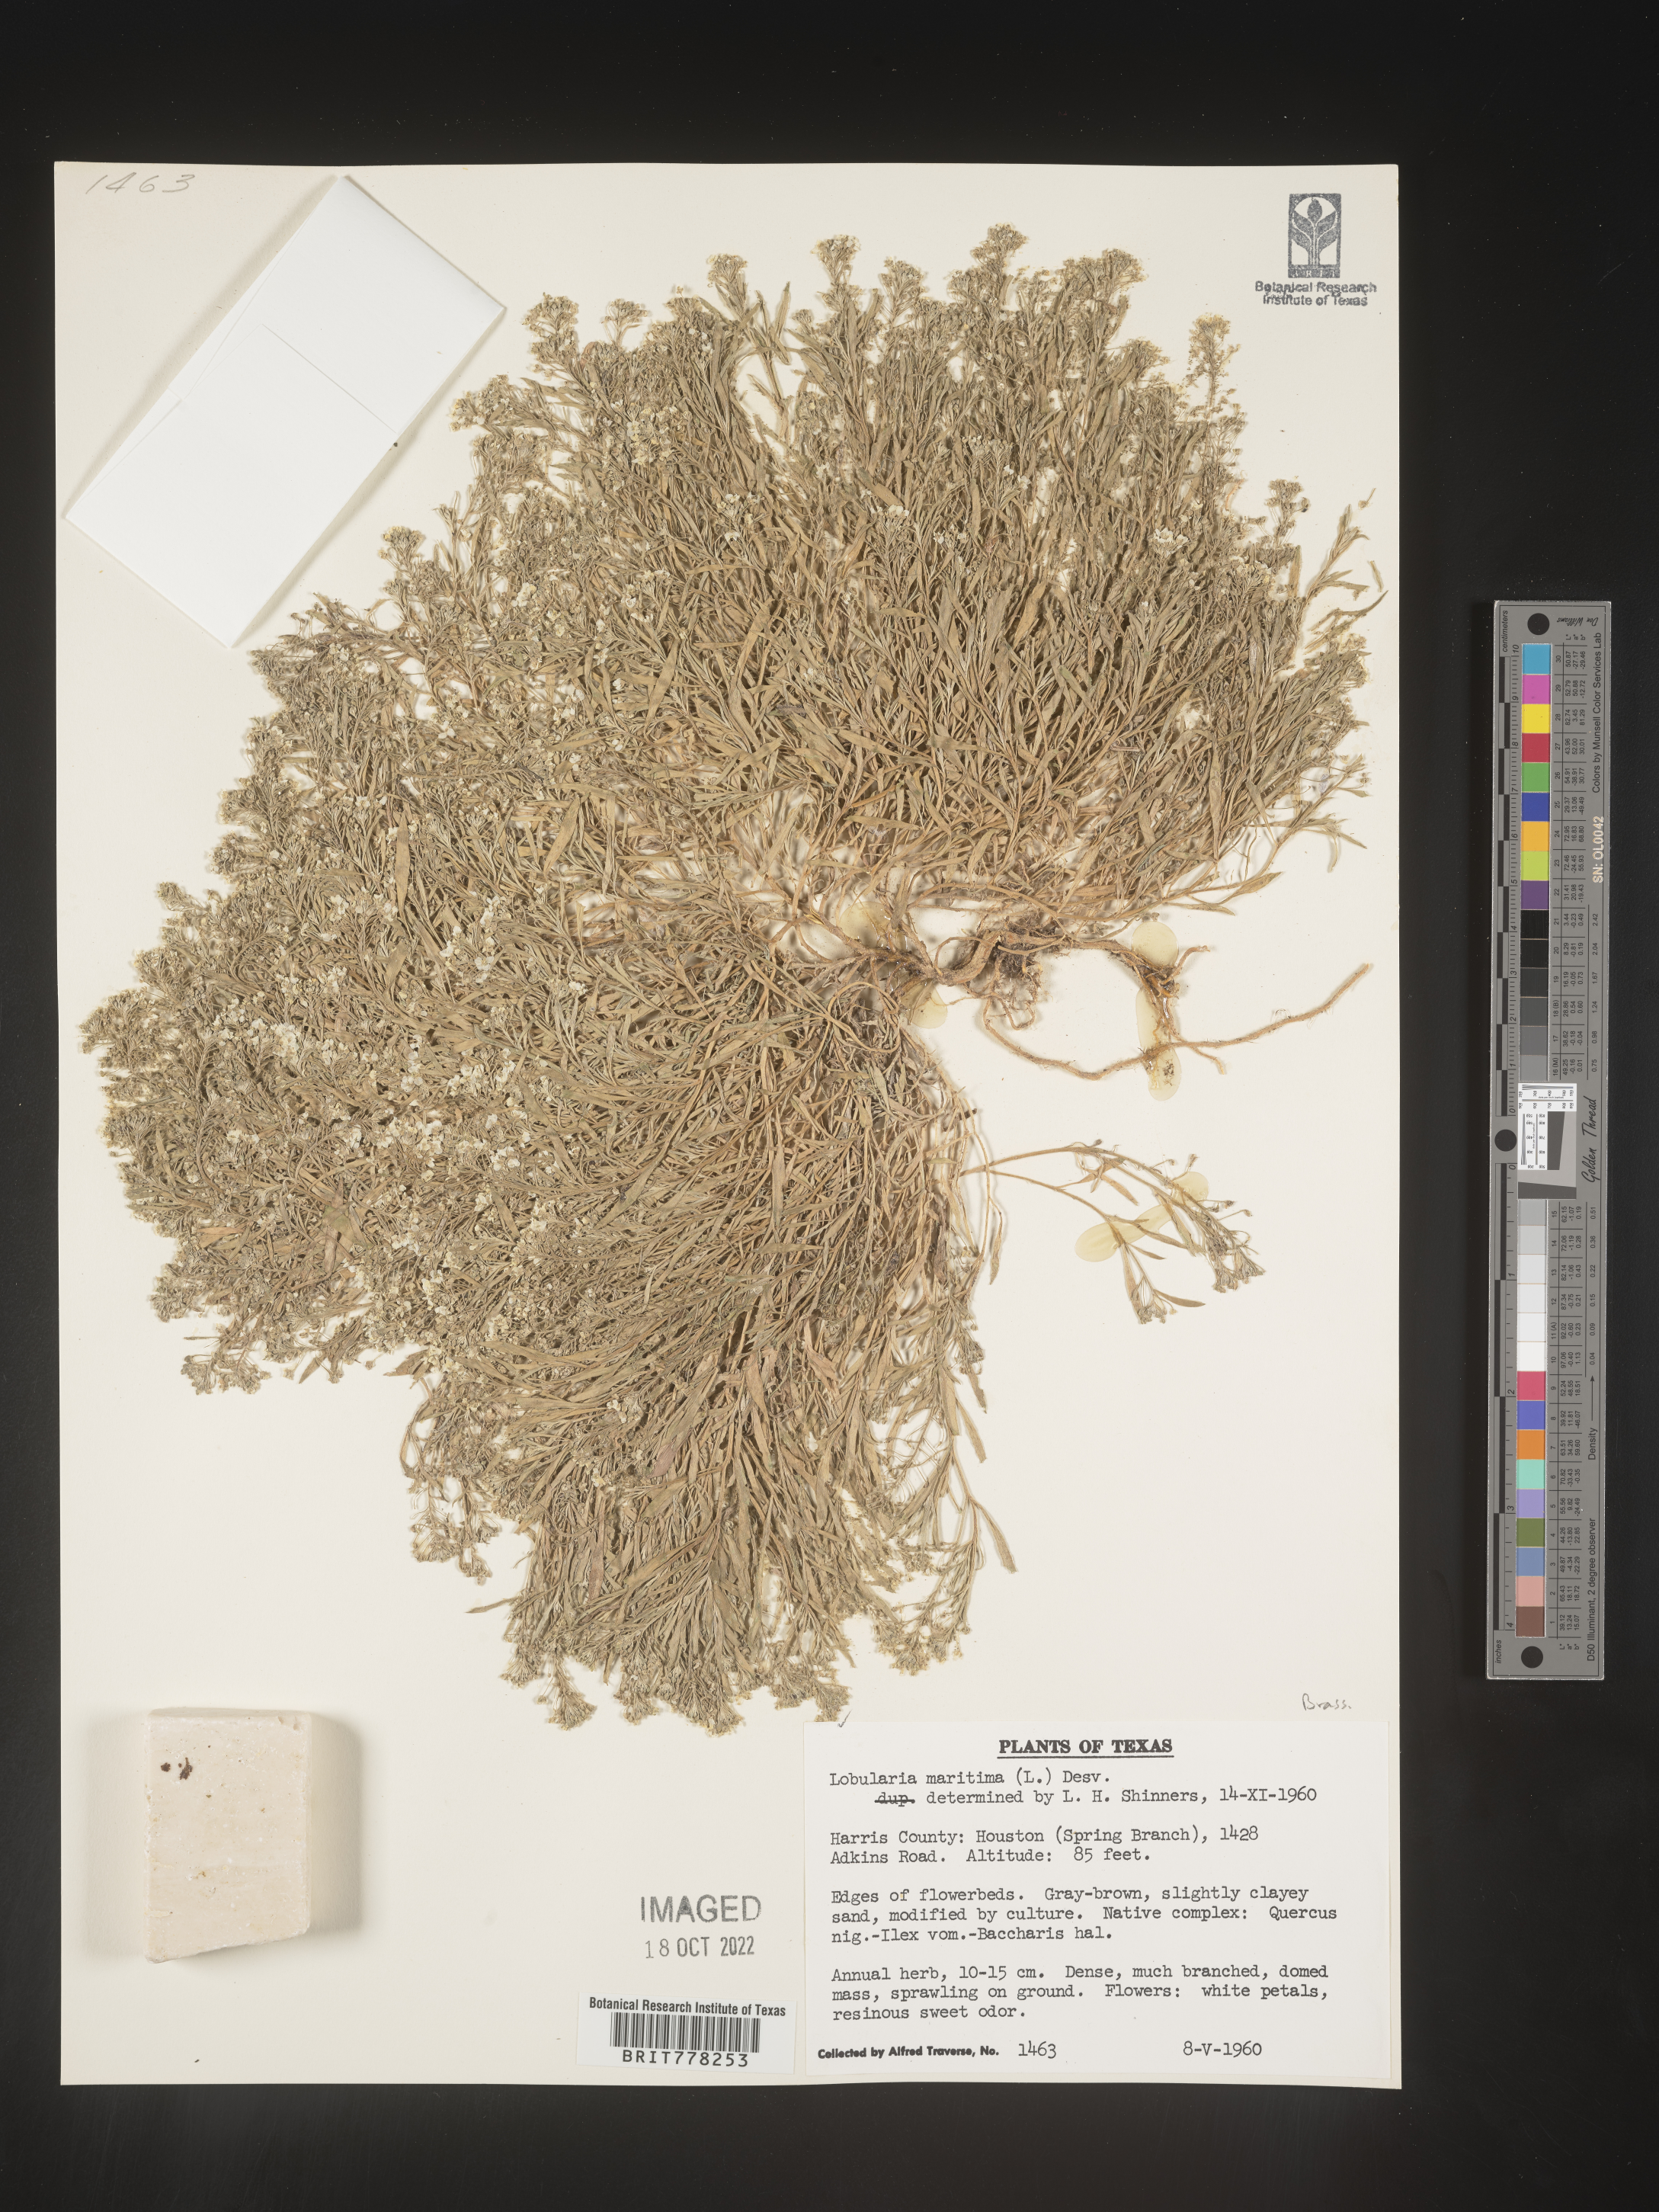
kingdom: Plantae
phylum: Tracheophyta
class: Magnoliopsida
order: Brassicales
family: Brassicaceae
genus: Lobularia
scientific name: Lobularia
